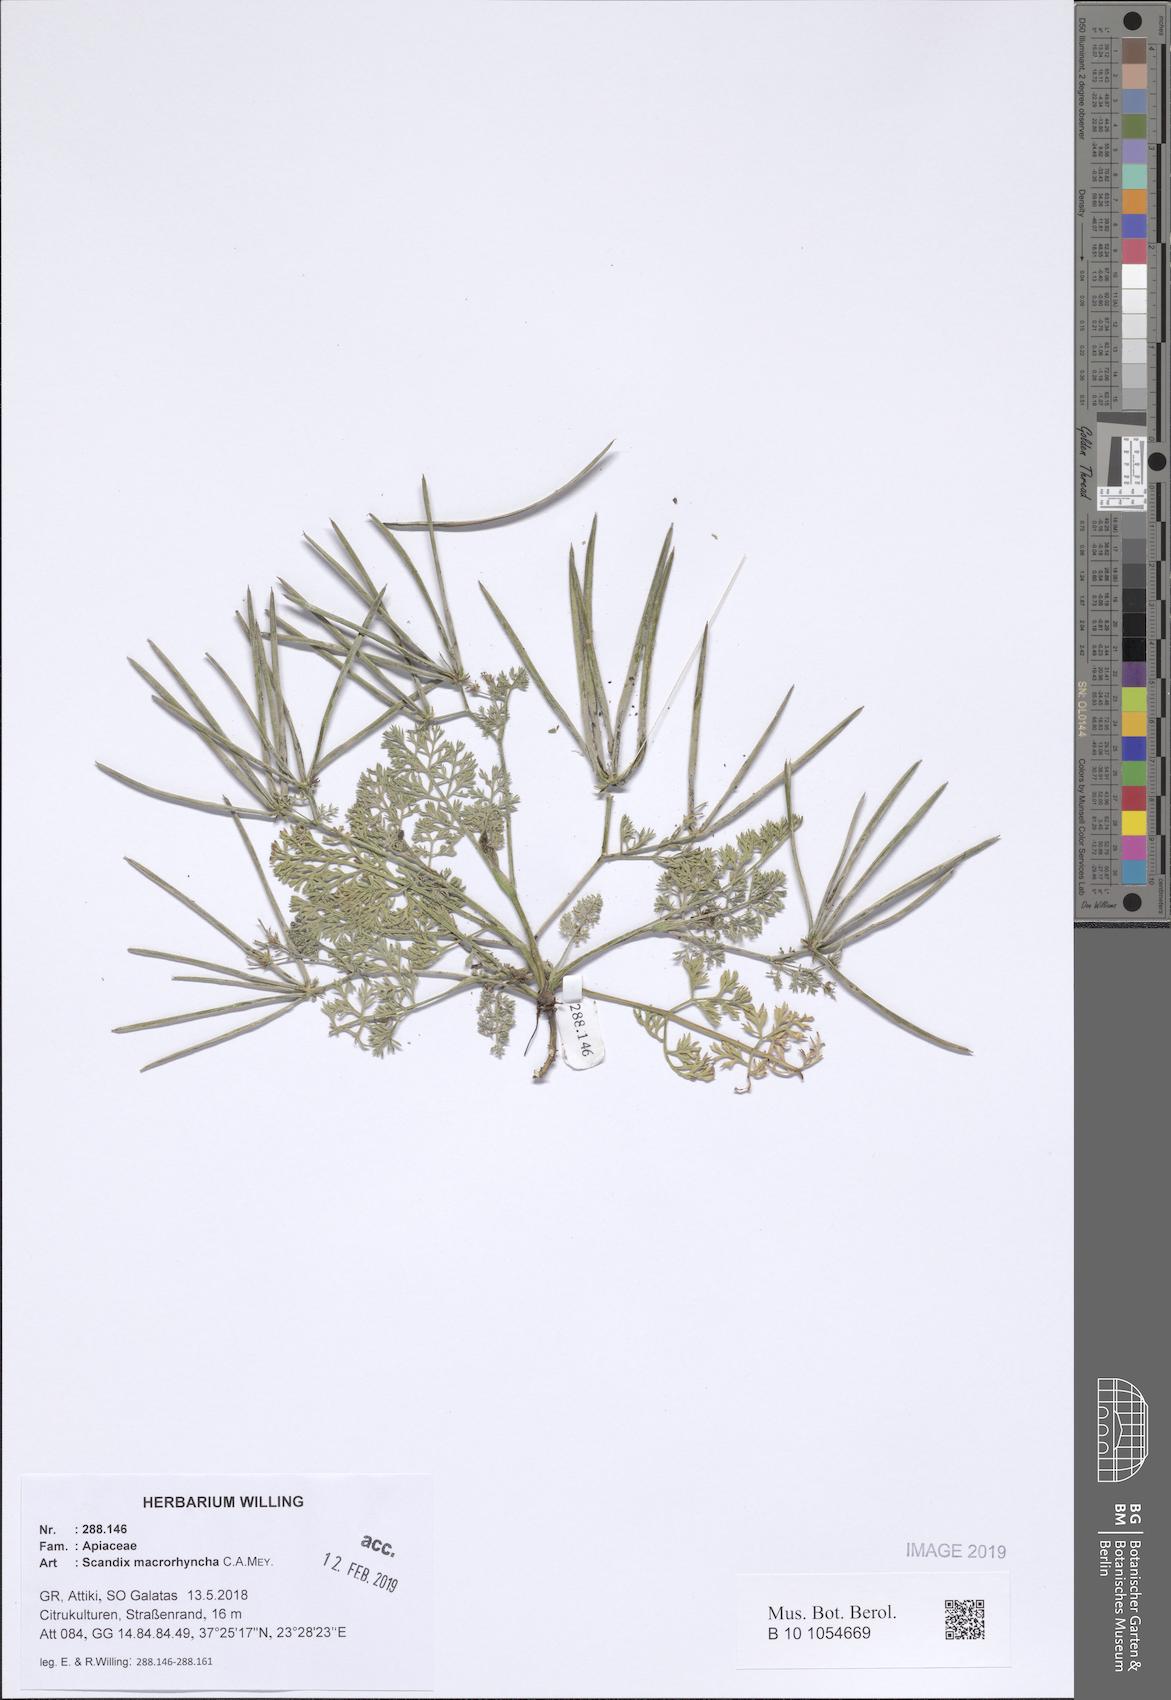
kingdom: Plantae
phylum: Tracheophyta
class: Magnoliopsida
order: Apiales
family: Apiaceae
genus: Scandix
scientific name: Scandix macrorhyncha
